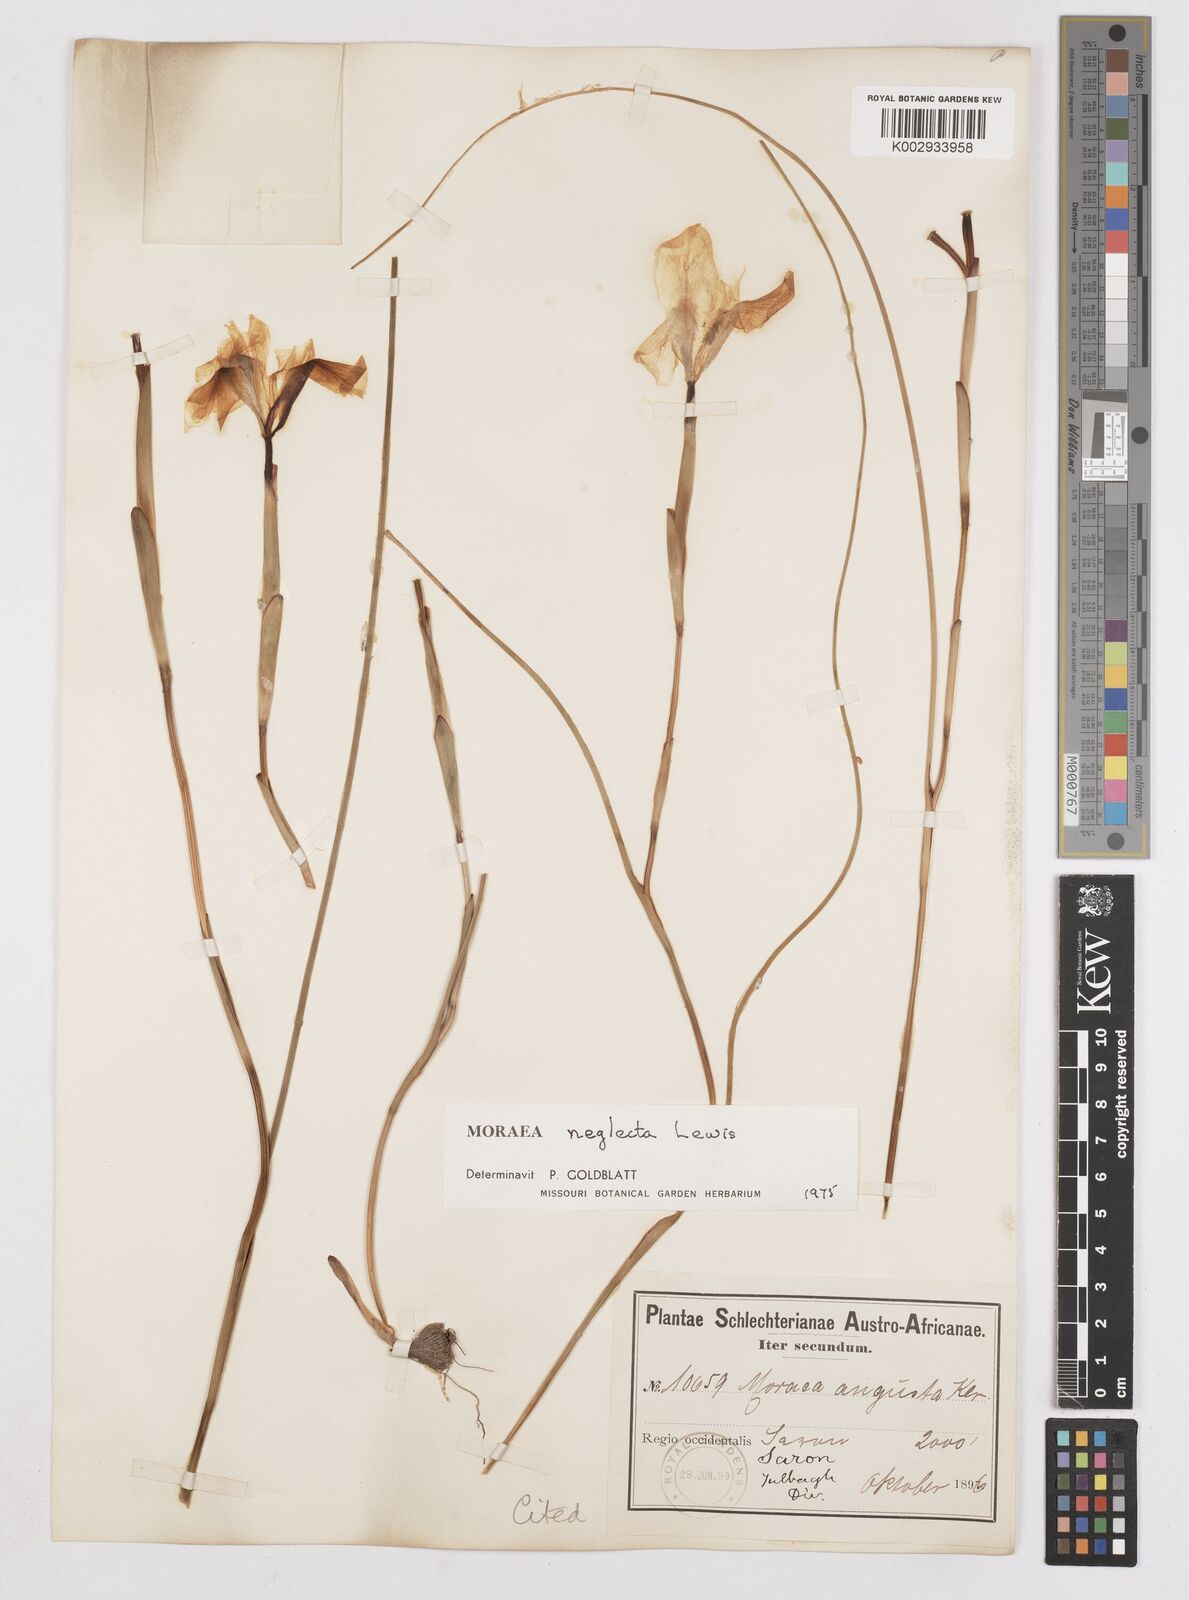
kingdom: Plantae
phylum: Tracheophyta
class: Liliopsida
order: Asparagales
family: Iridaceae
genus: Moraea
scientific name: Moraea neglecta
